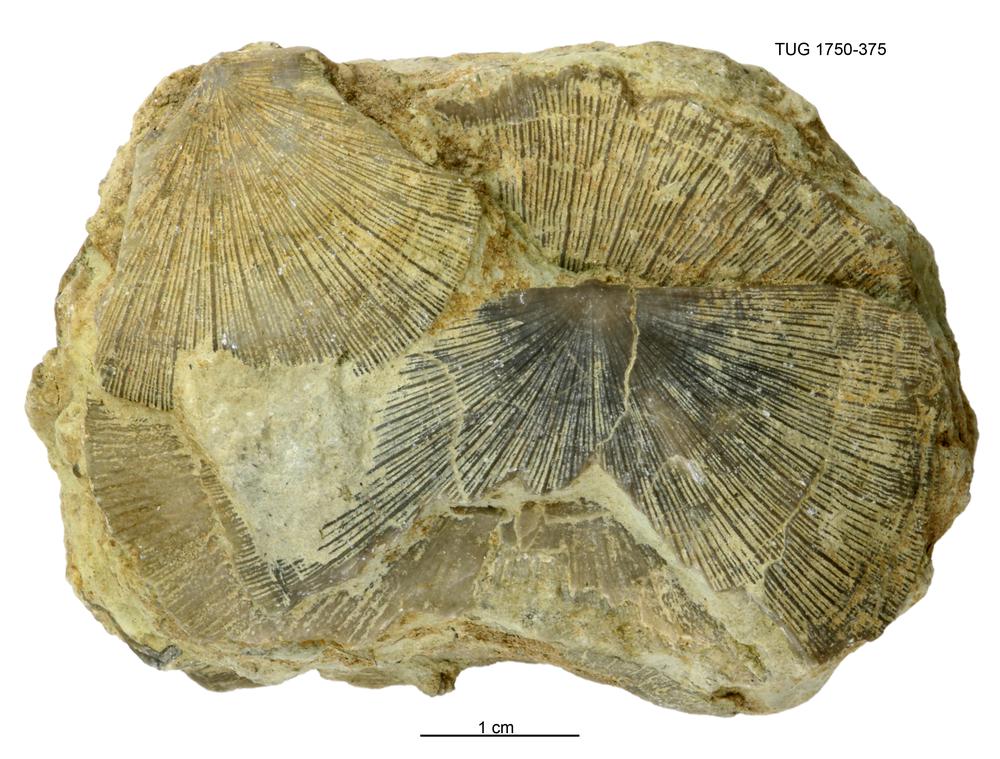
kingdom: Animalia
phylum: Brachiopoda
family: Strophomenidae
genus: Strophomena
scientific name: Strophomena Orthis asmusi
